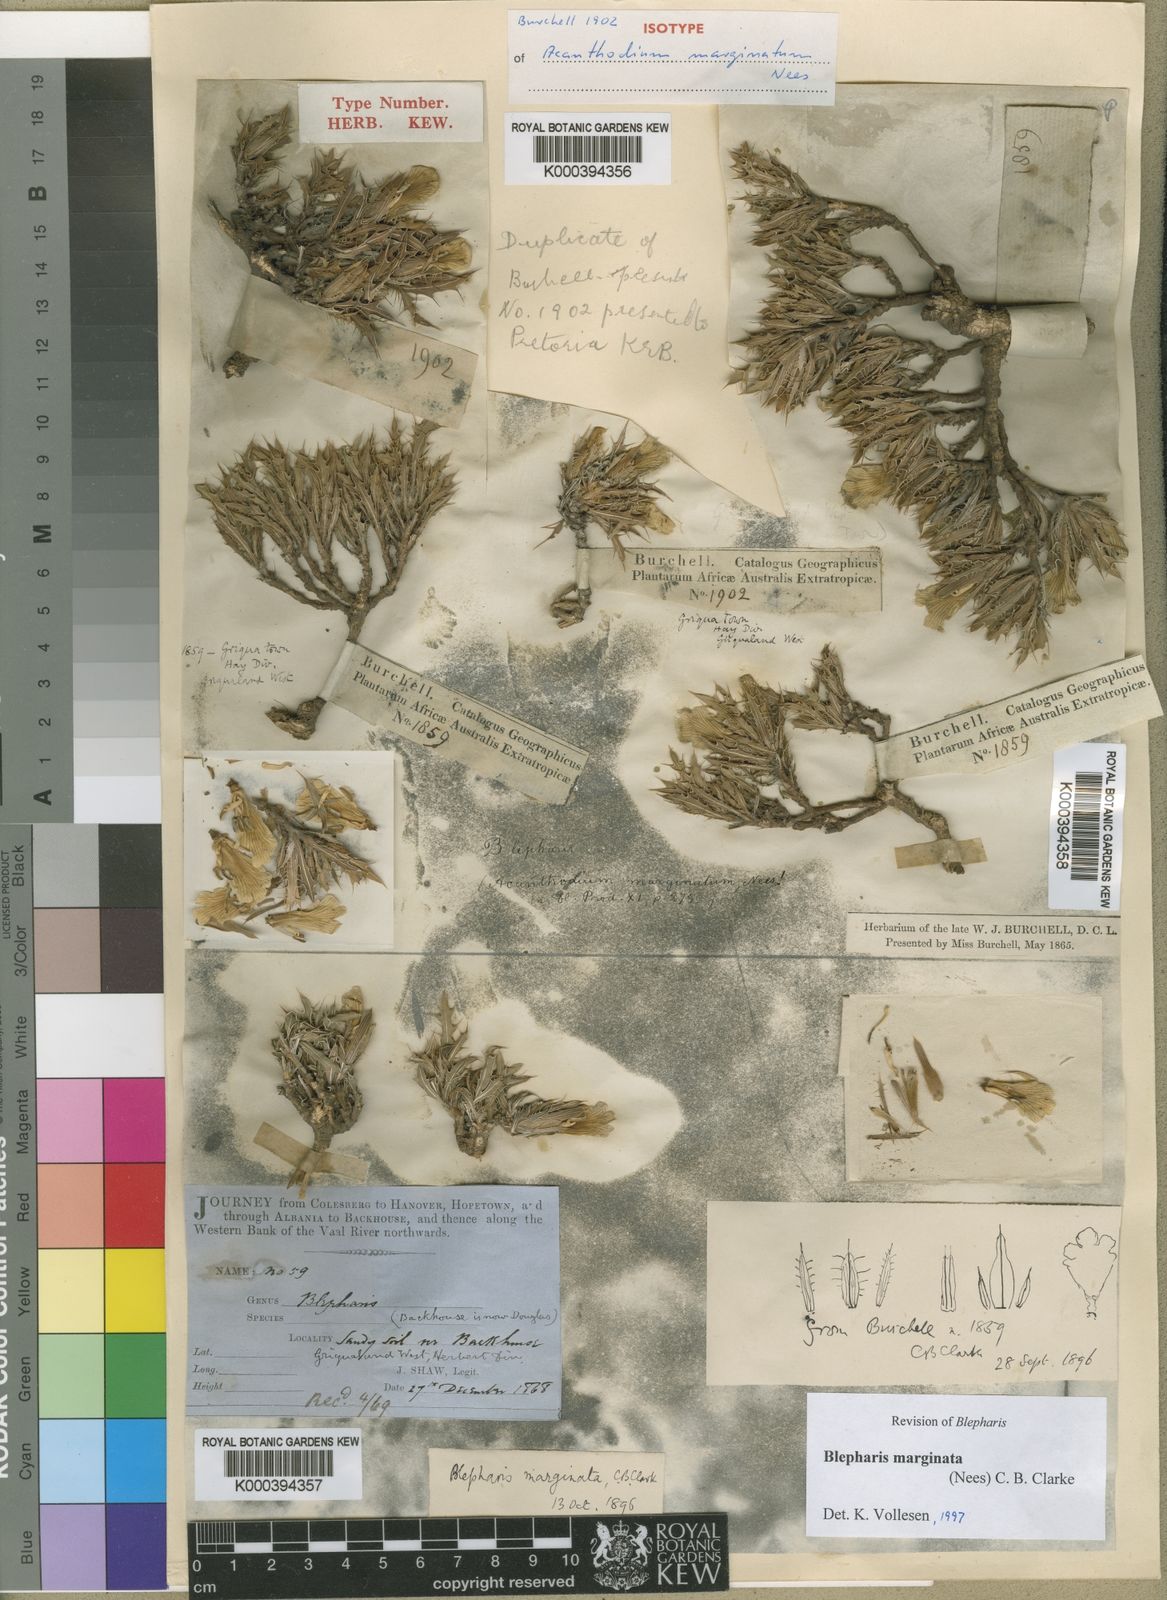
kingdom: Plantae
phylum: Tracheophyta
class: Magnoliopsida
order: Lamiales
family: Acanthaceae
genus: Blepharis
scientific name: Blepharis marginata
